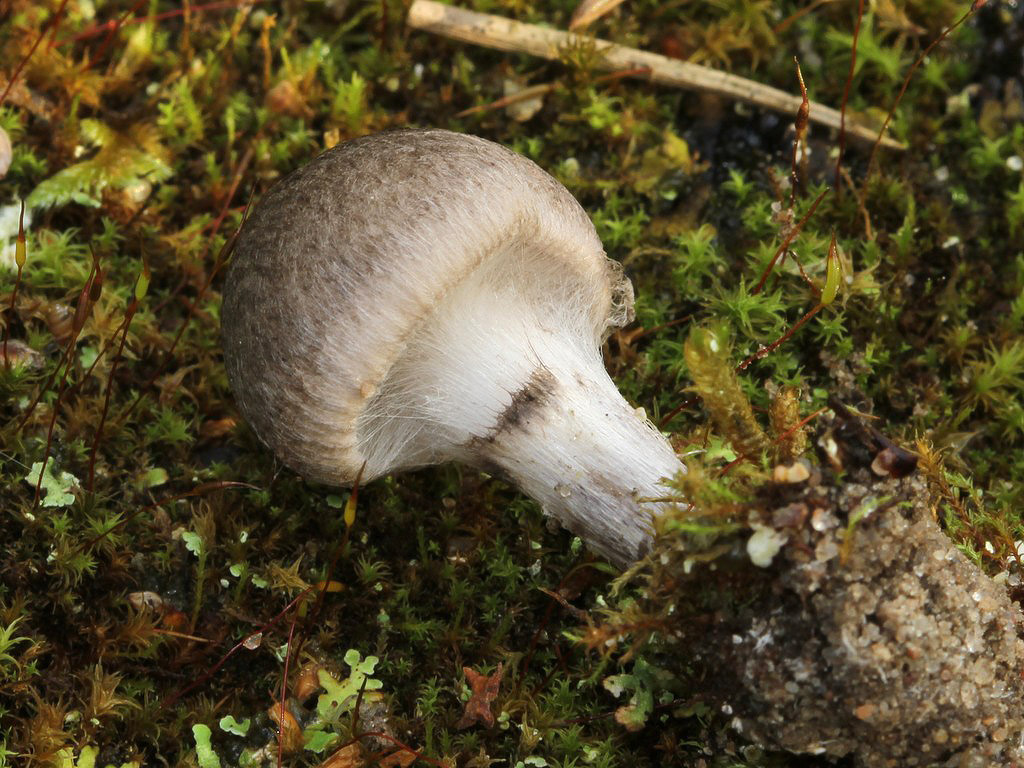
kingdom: Fungi
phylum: Basidiomycota
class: Agaricomycetes
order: Agaricales
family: Tricholomataceae
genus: Tricholoma
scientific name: Tricholoma argyraceum
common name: slør-ridderhat
